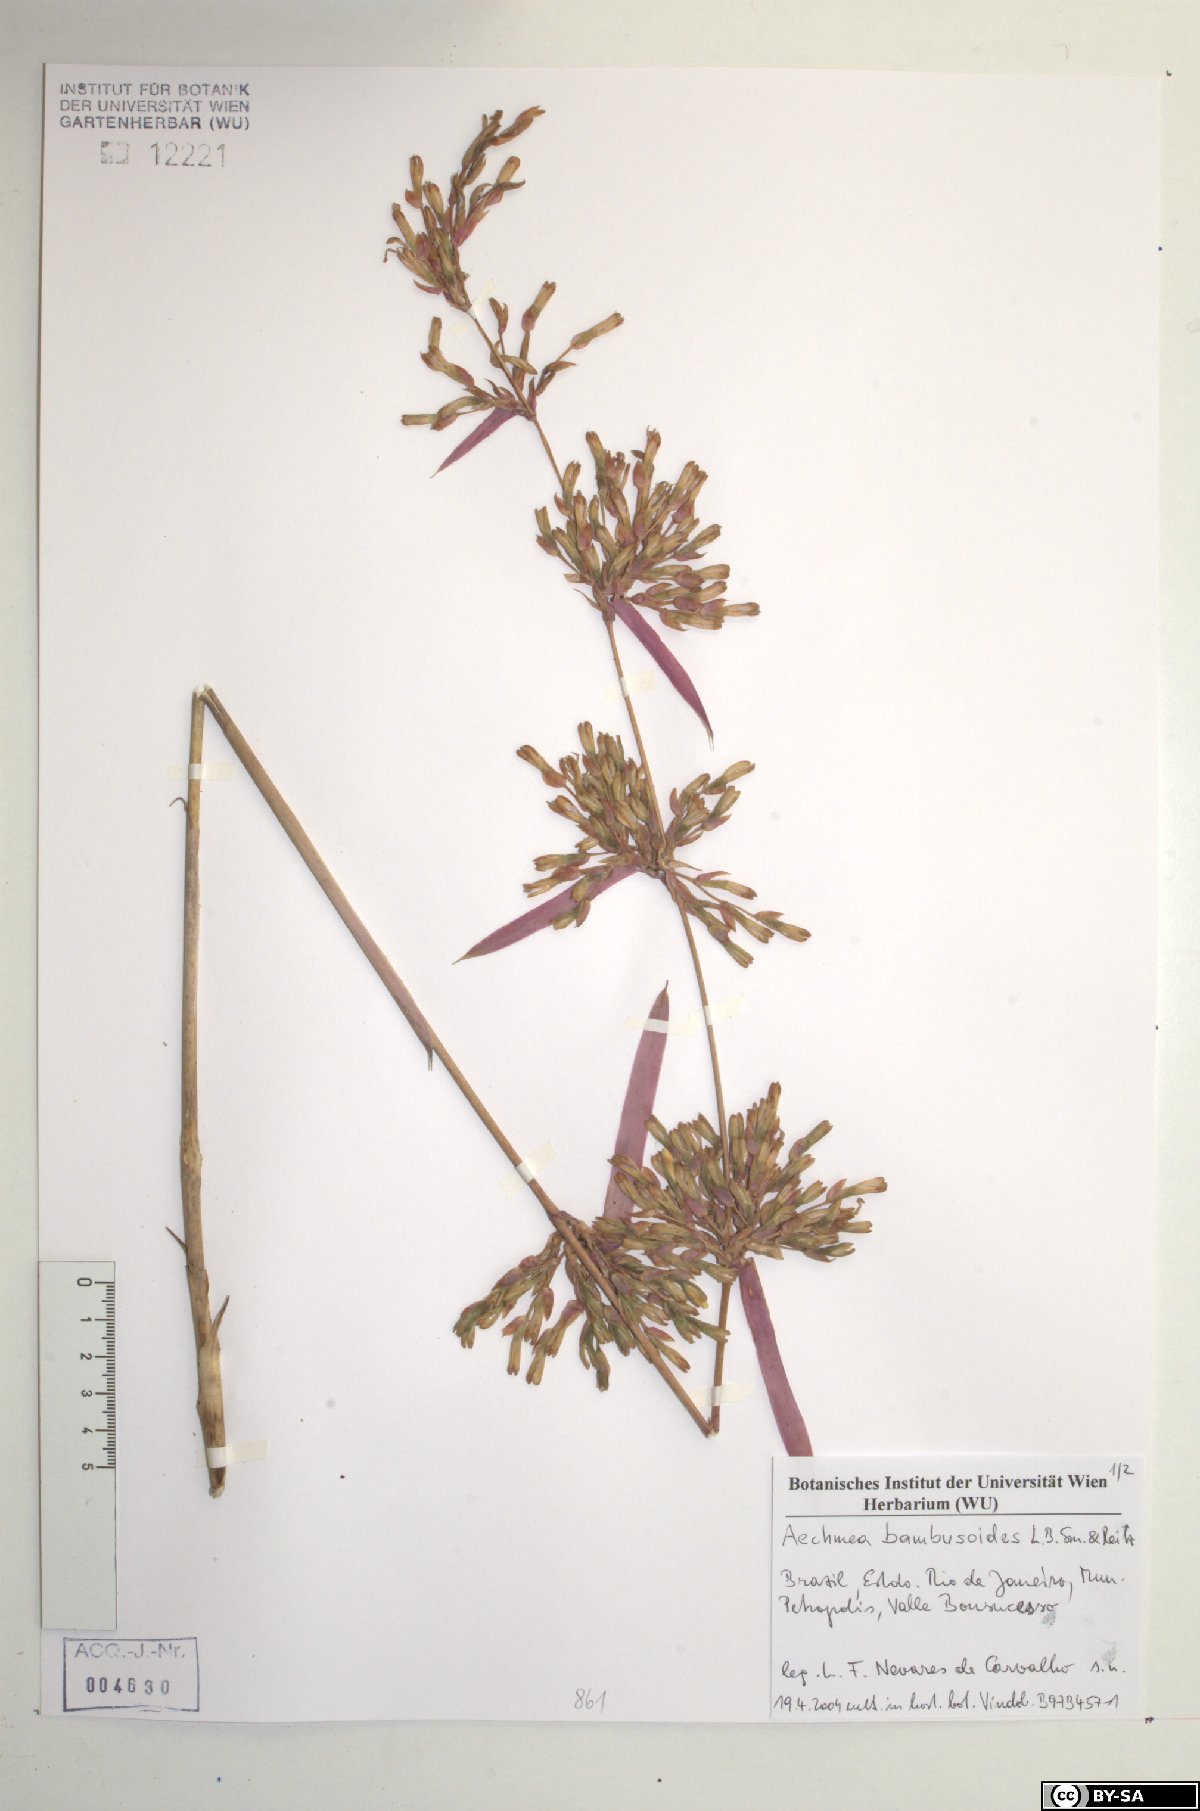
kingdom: Plantae
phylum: Tracheophyta
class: Liliopsida
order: Poales
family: Bromeliaceae
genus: Aechmea
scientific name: Aechmea bambusoides
